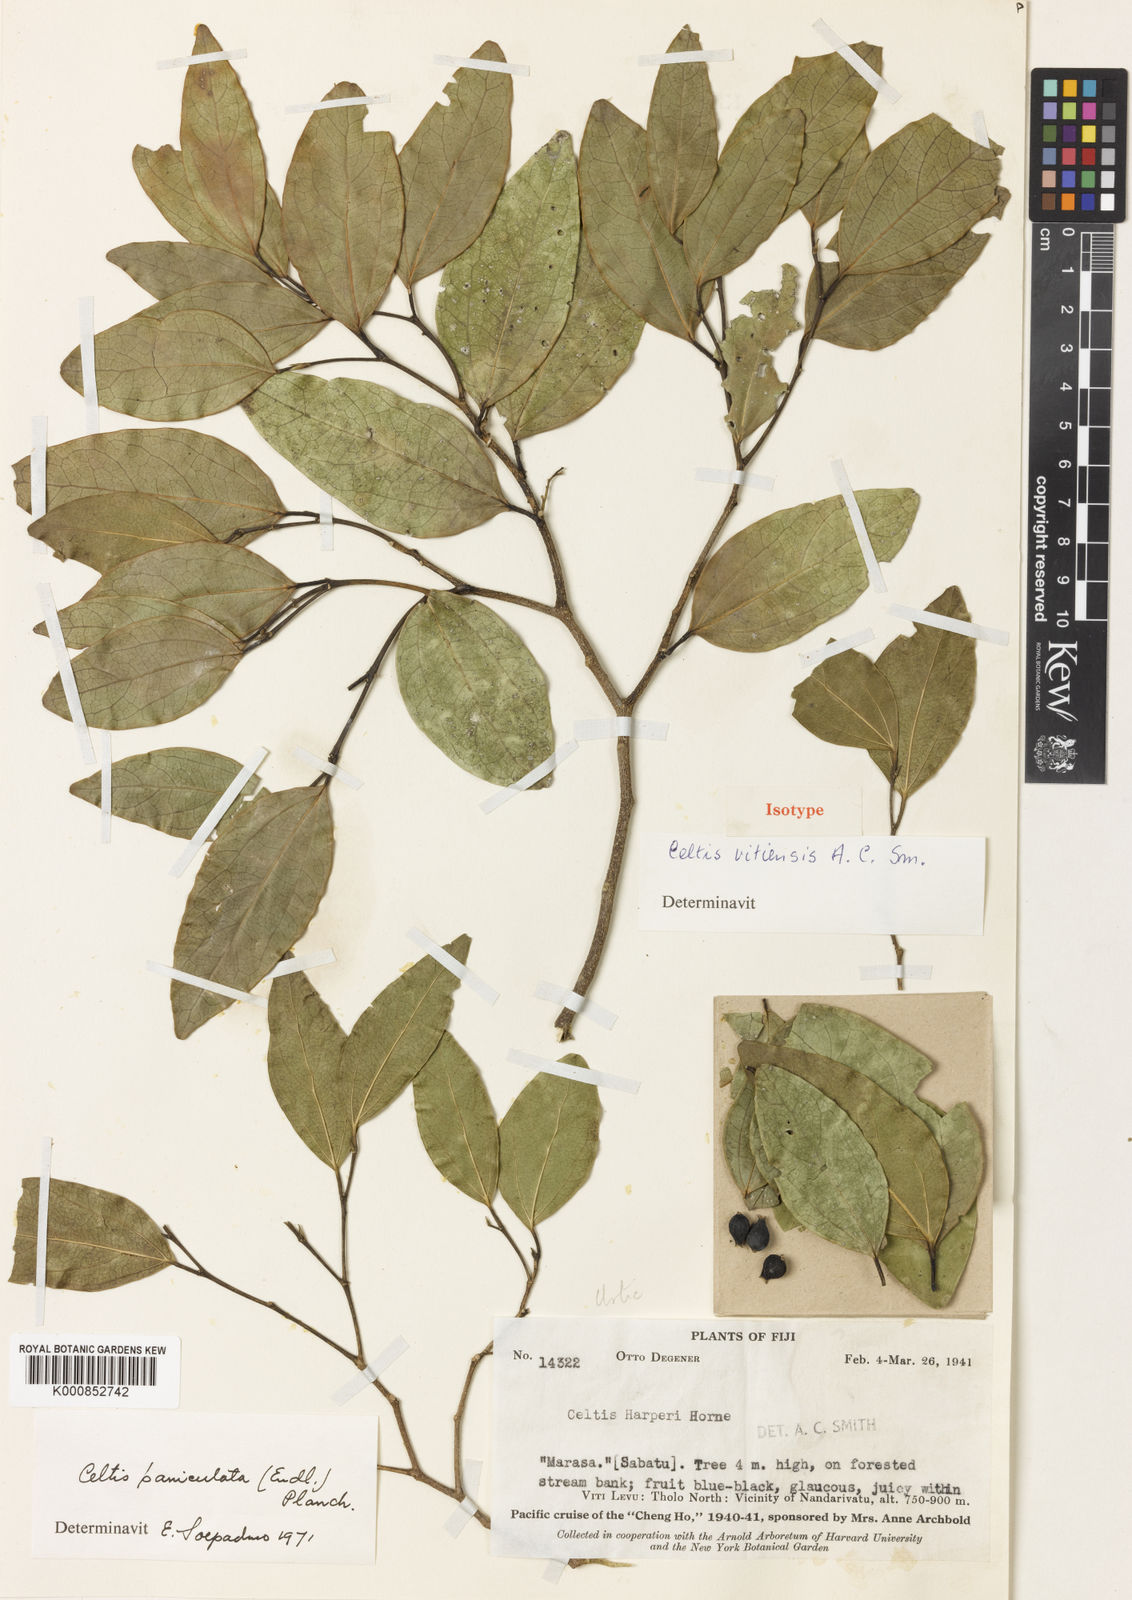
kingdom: Plantae
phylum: Tracheophyta
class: Magnoliopsida
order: Rosales
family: Cannabaceae
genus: Celtis
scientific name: Celtis vitiensis
